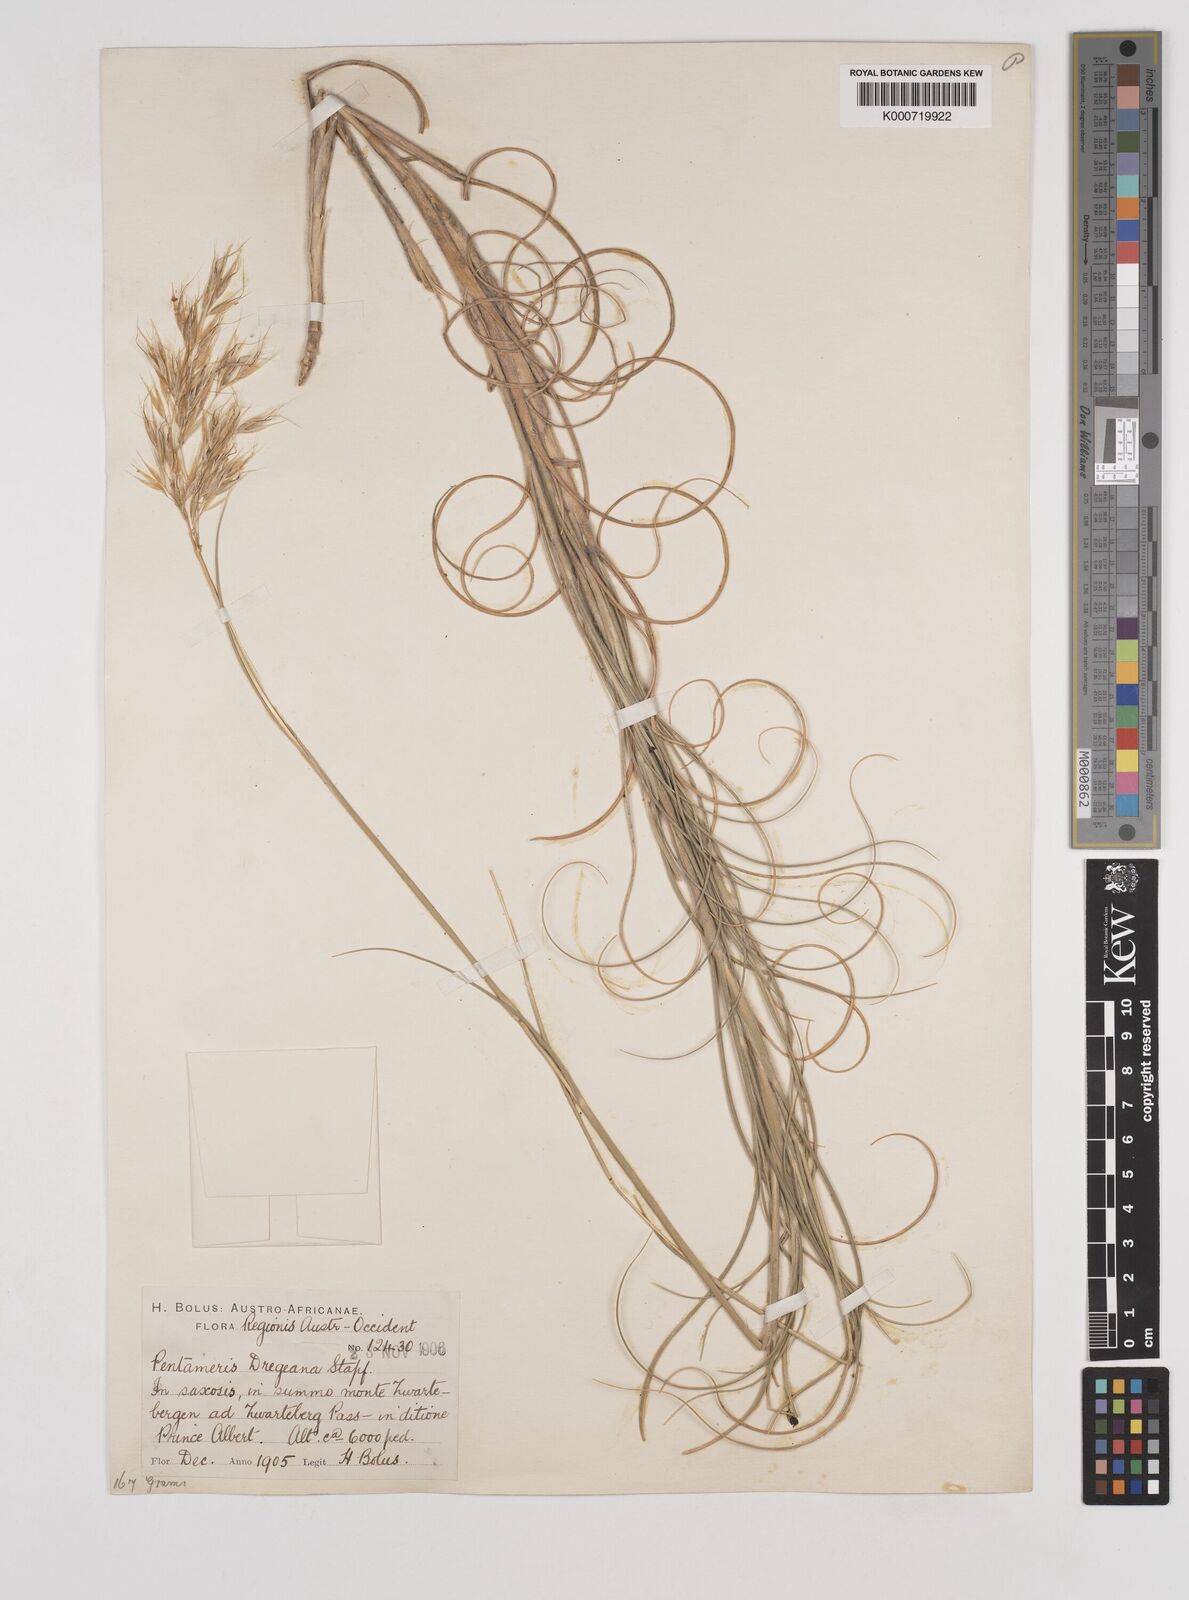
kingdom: Plantae
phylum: Tracheophyta
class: Liliopsida
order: Poales
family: Poaceae
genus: Pentameris
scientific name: Pentameris dregeana
